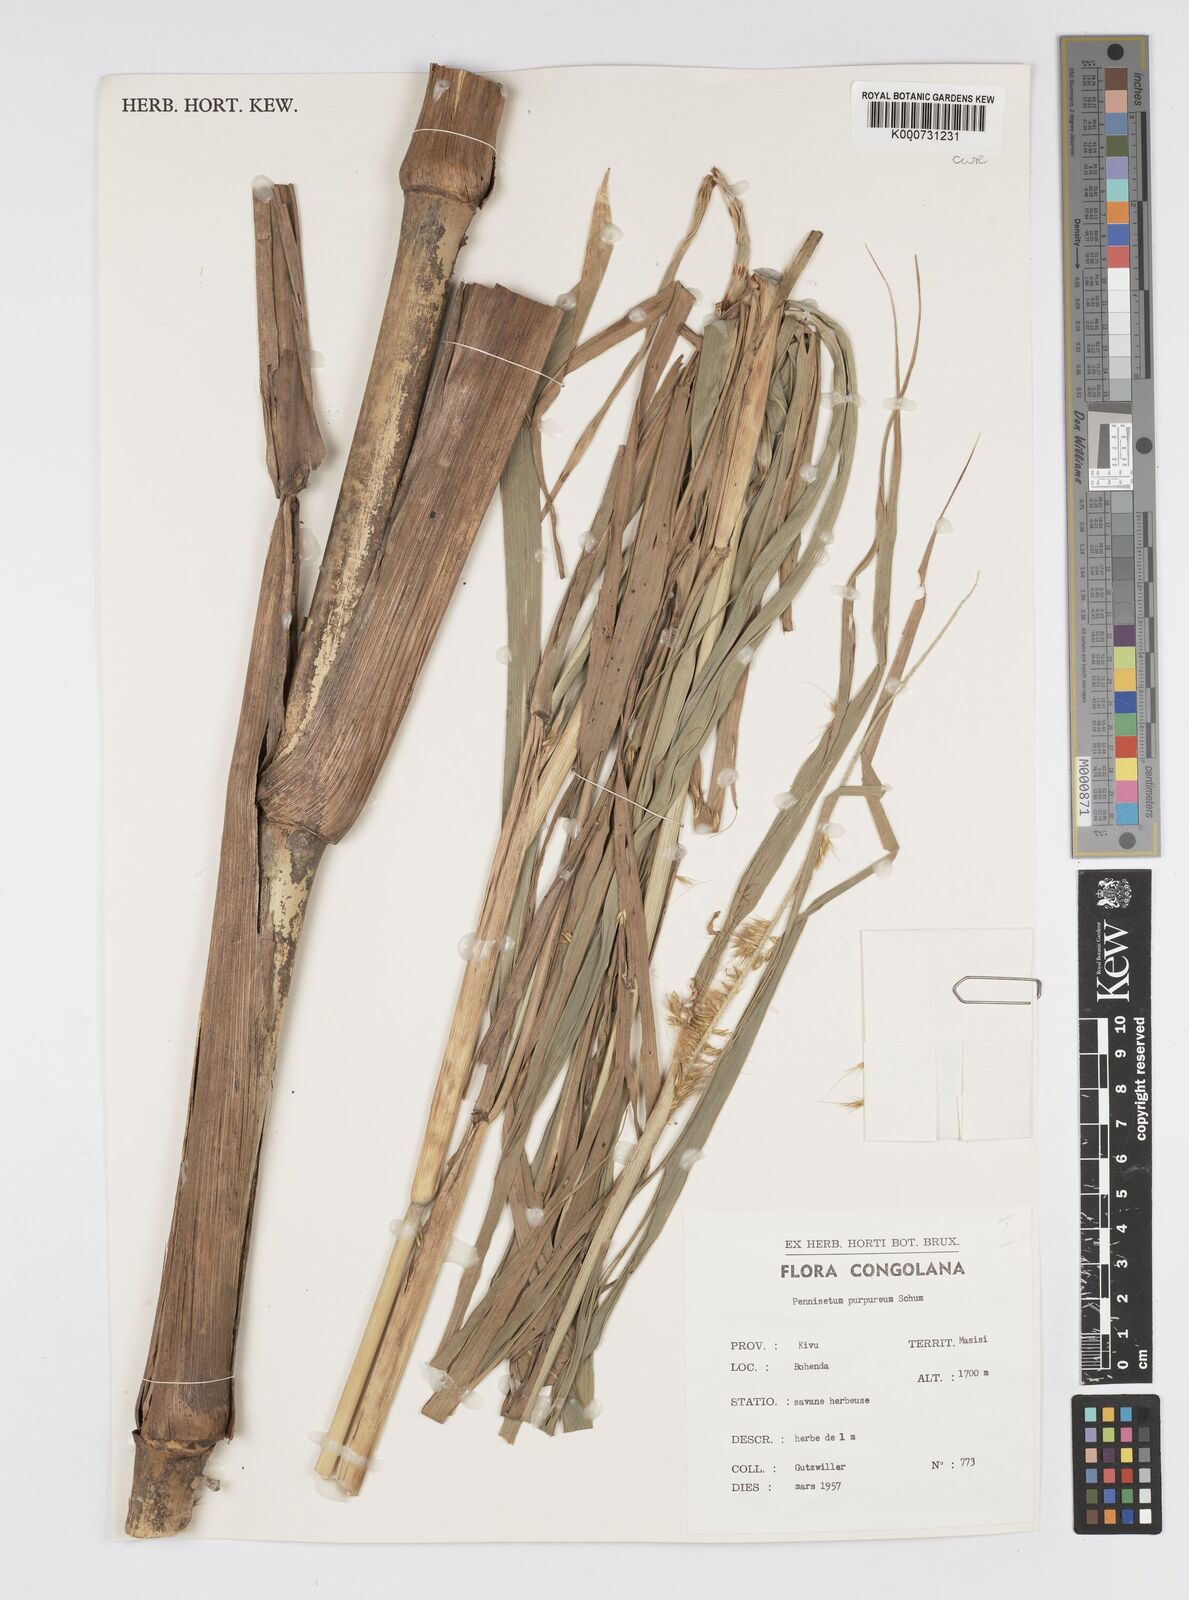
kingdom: Plantae
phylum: Tracheophyta
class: Liliopsida
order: Poales
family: Poaceae
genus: Cenchrus
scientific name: Cenchrus purpureus
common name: Elephant grass
